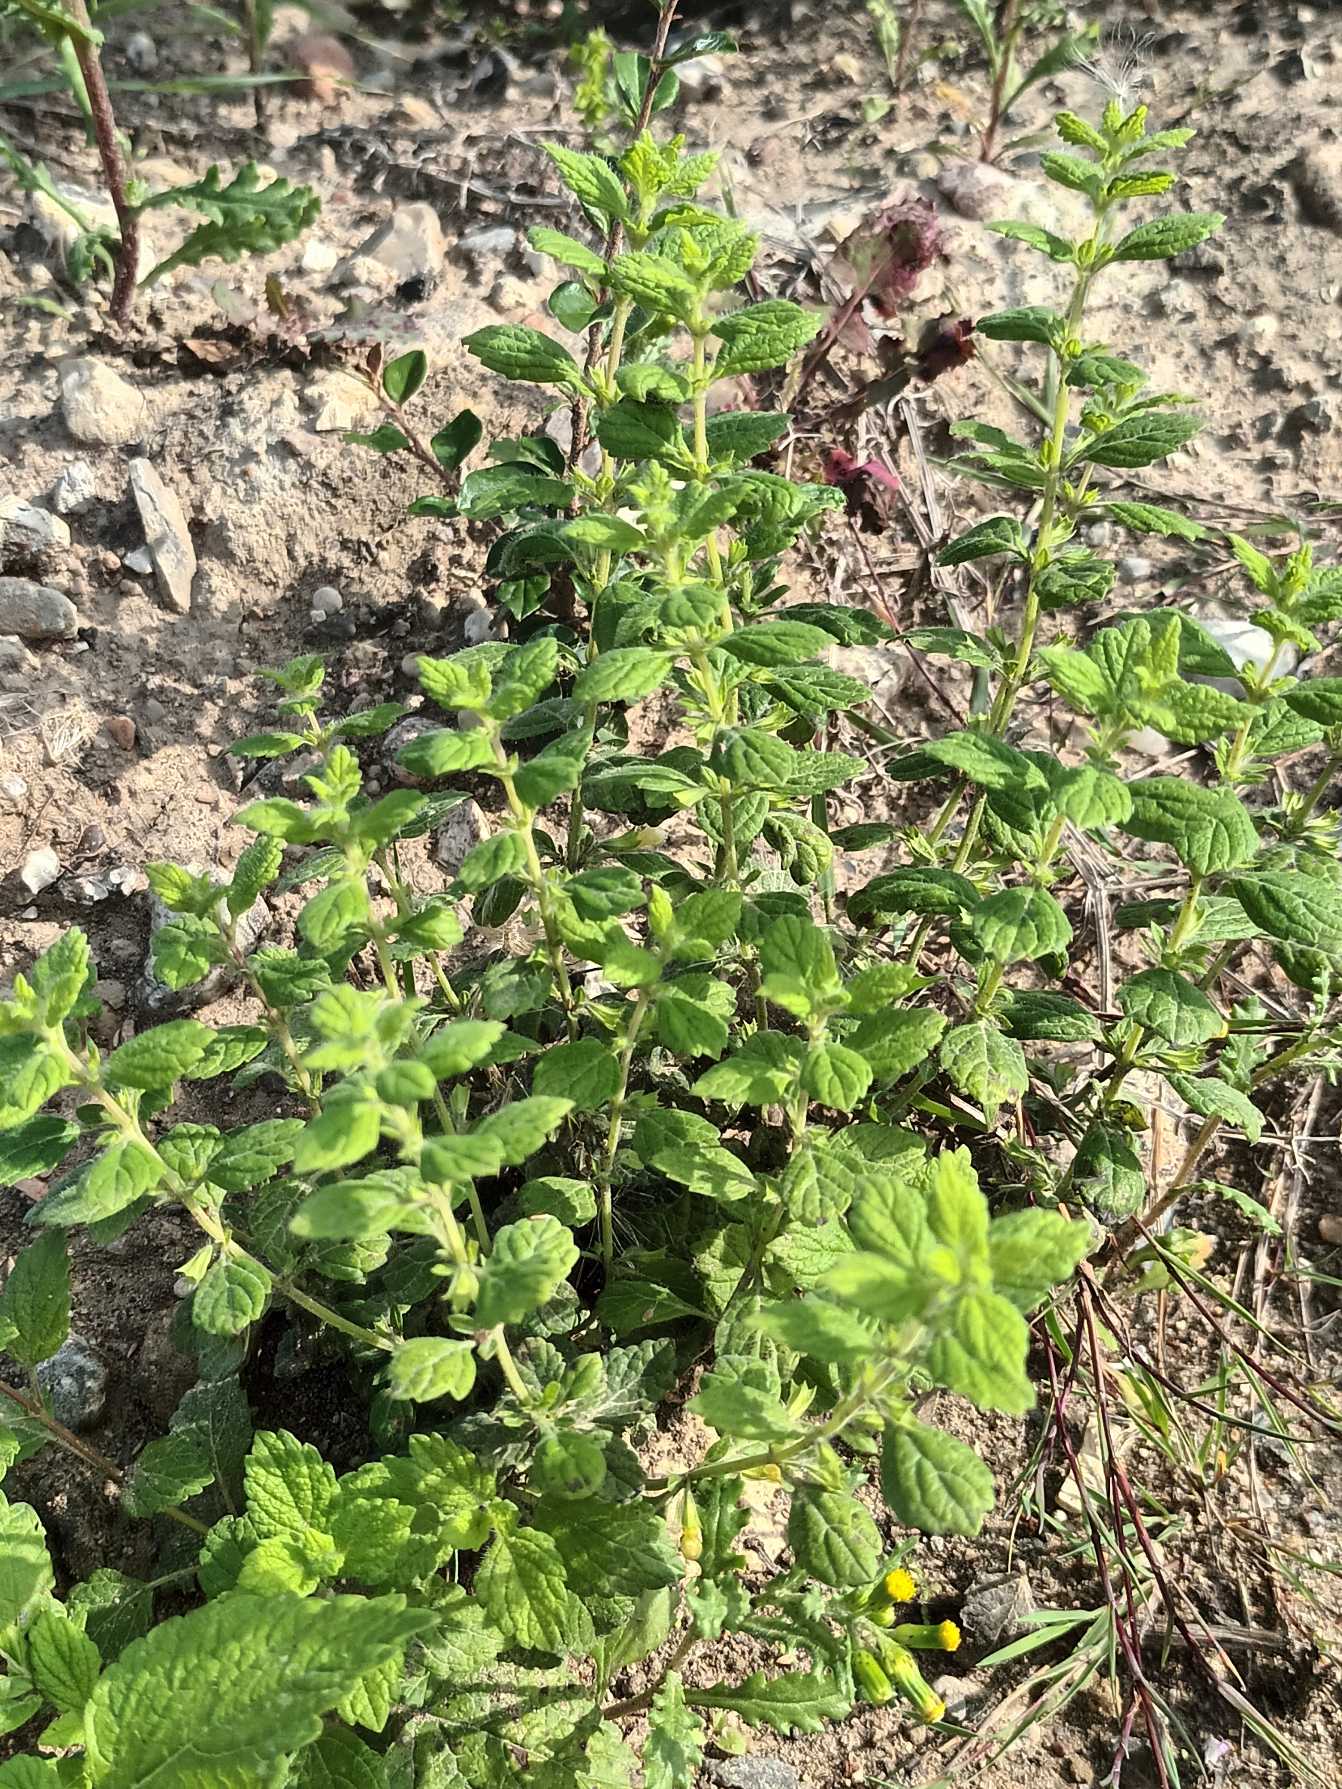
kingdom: Plantae
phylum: Tracheophyta
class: Magnoliopsida
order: Lamiales
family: Lamiaceae
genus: Melissa
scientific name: Melissa officinalis
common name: Citronmelisse
